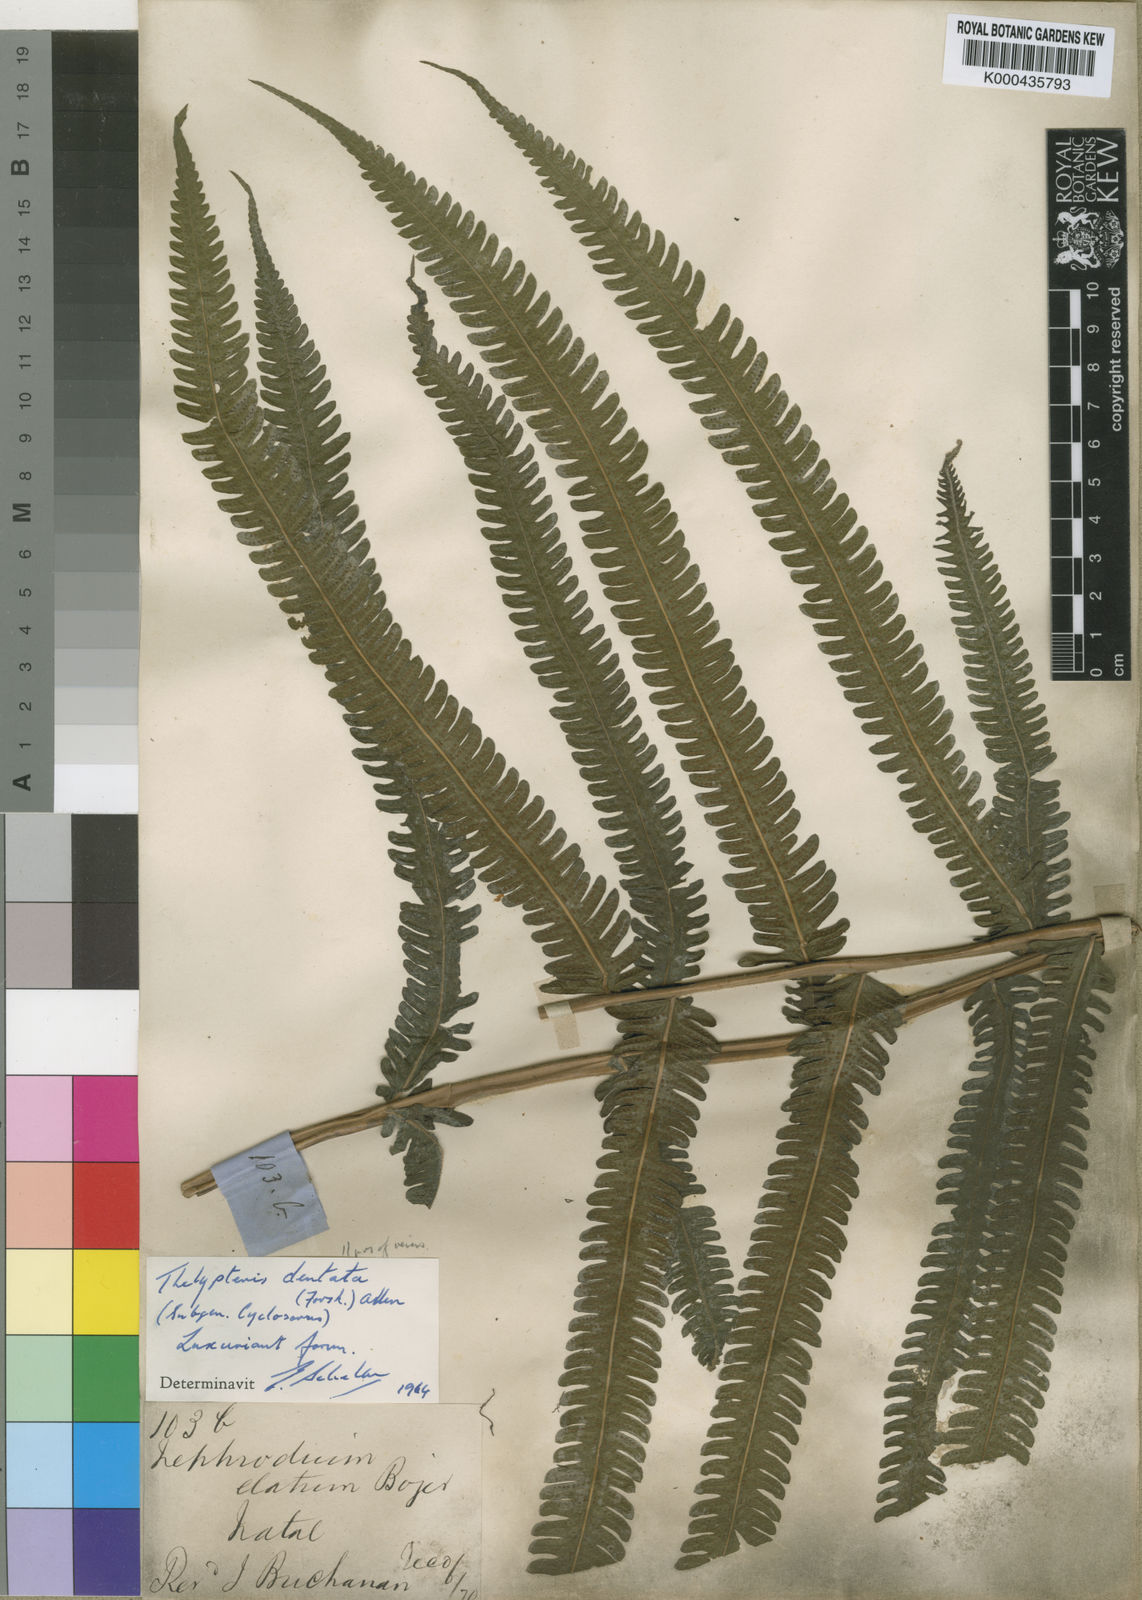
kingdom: Plantae
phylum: Tracheophyta
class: Polypodiopsida
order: Polypodiales
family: Thelypteridaceae
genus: Christella
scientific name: Christella altissima
